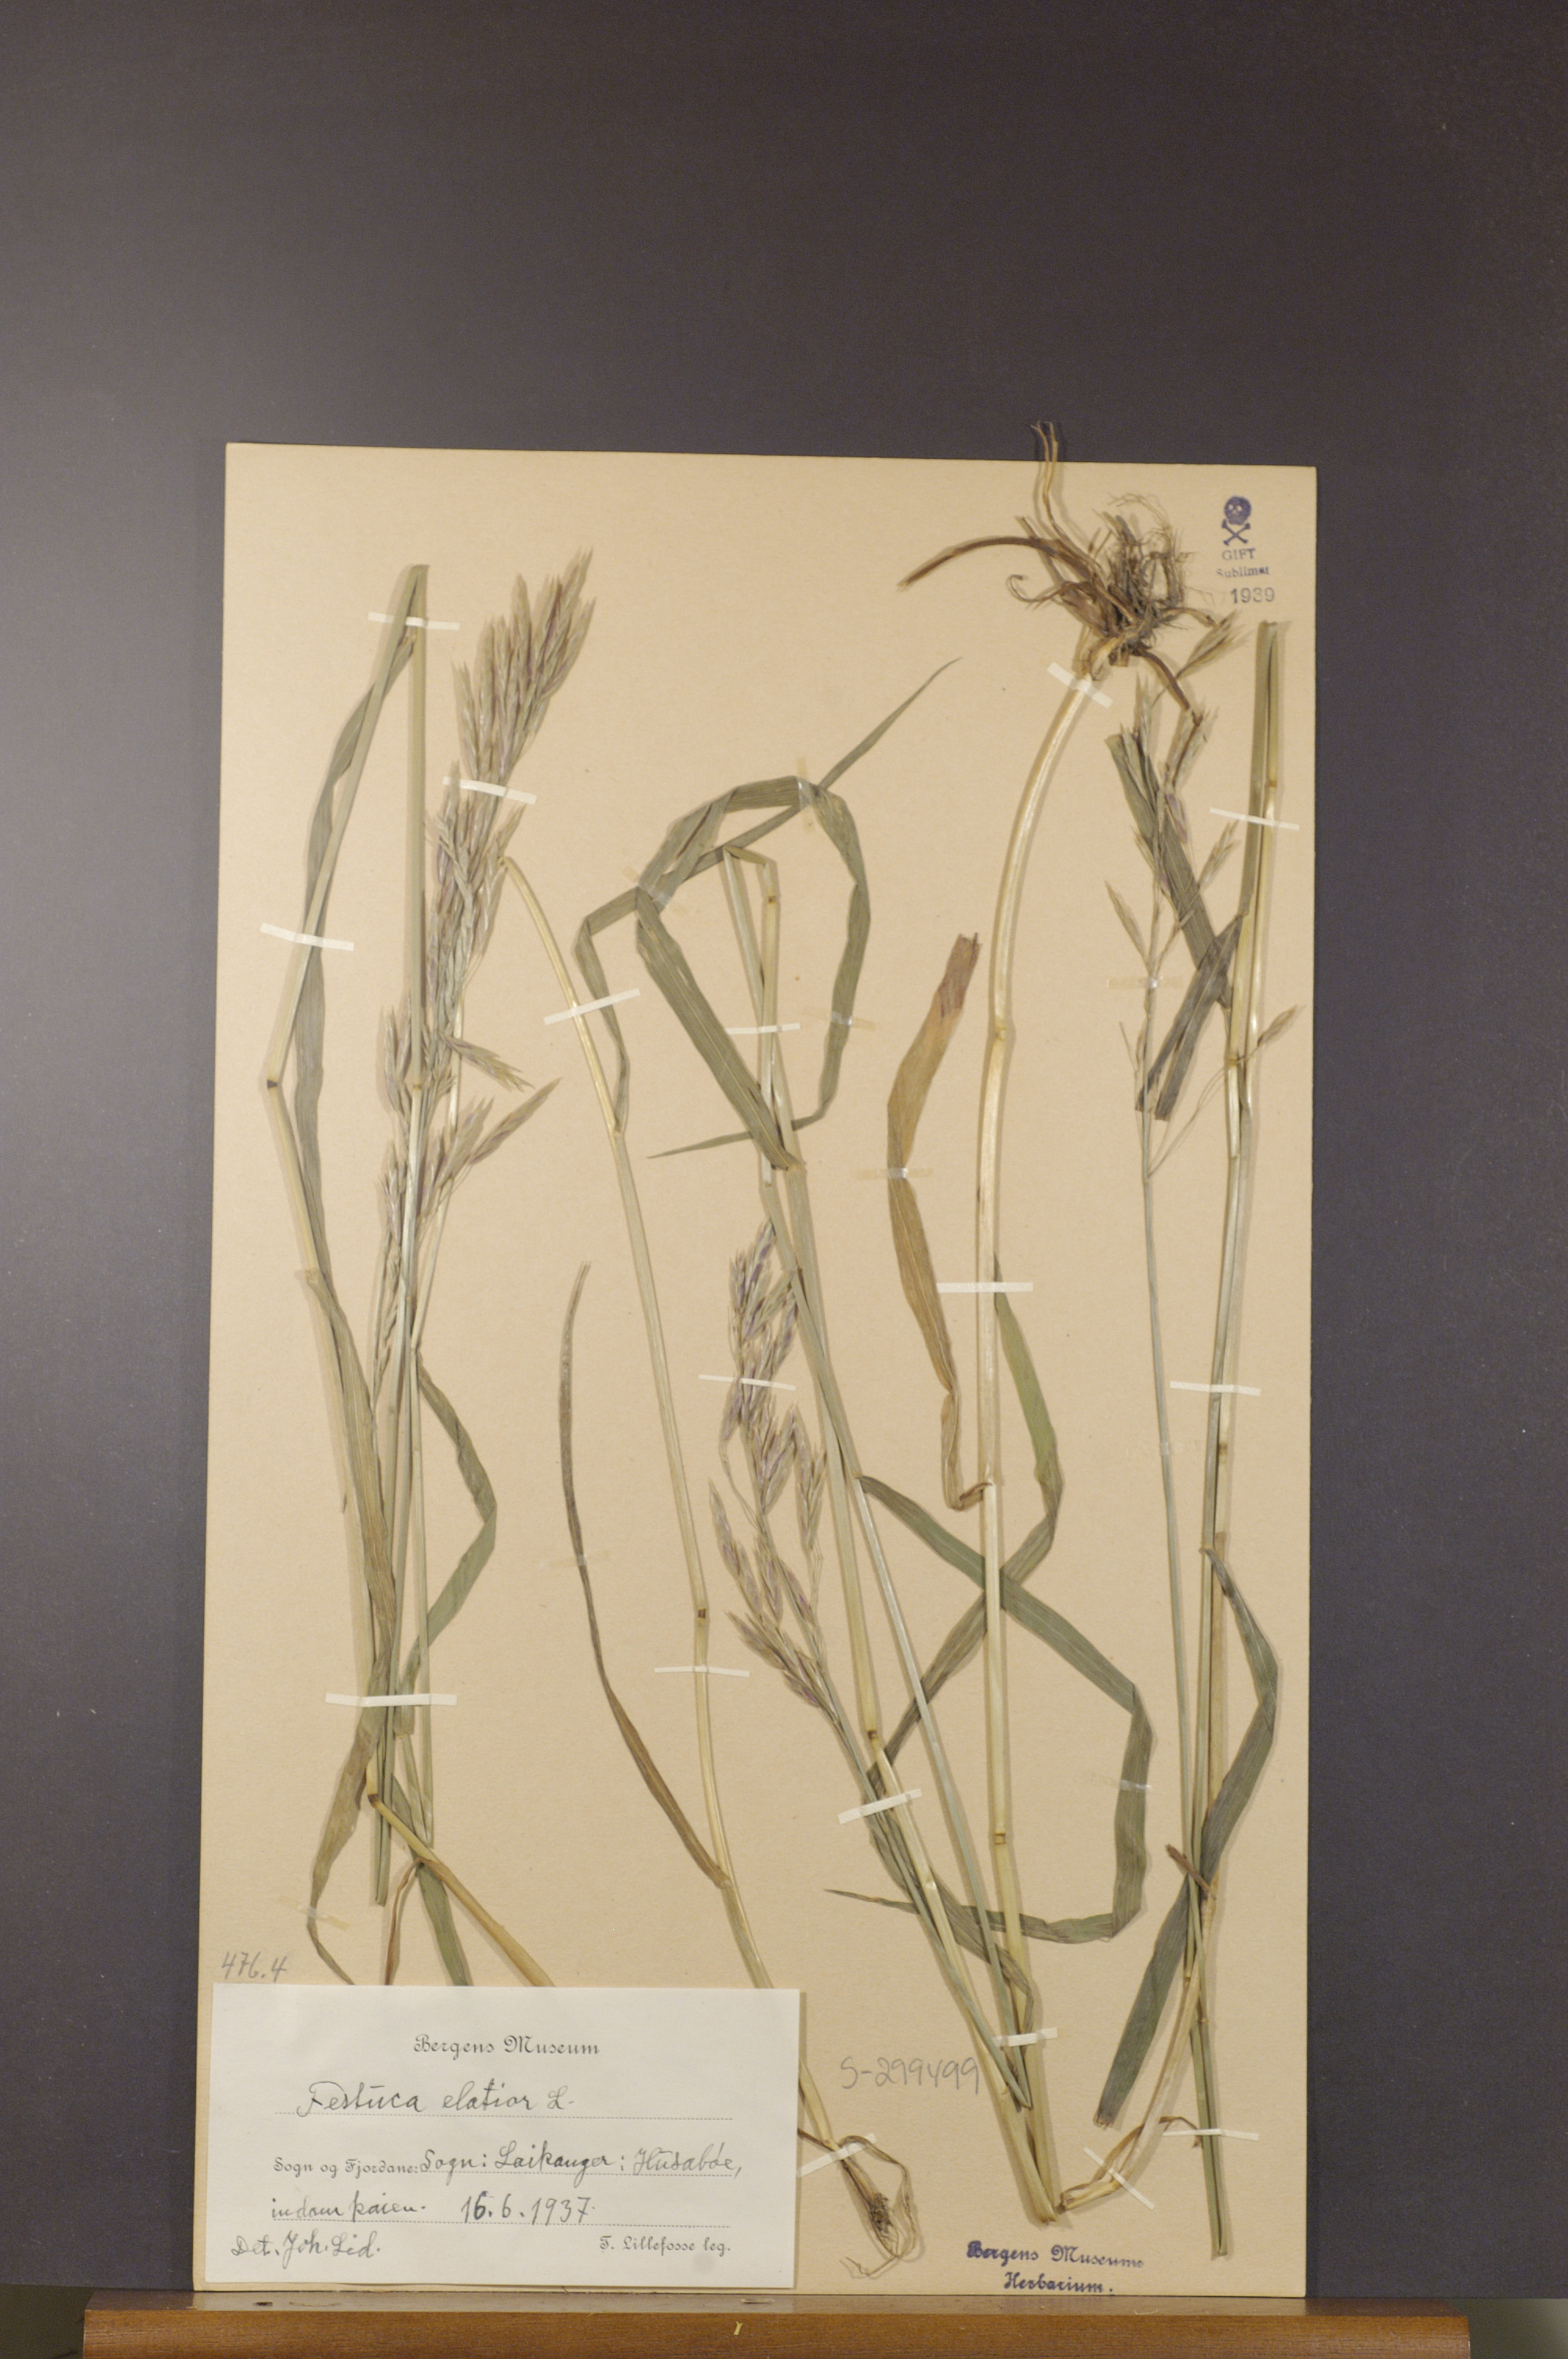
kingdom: Plantae
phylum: Tracheophyta
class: Liliopsida
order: Poales
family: Poaceae
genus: Lolium
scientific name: Lolium arundinaceum
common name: Reed fescue
